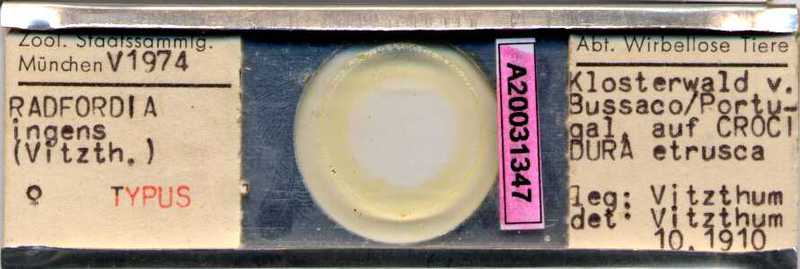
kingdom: Animalia
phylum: Arthropoda
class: Arachnida
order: Trombidiformes
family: Myobiidae
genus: Radfordia
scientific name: Radfordia
